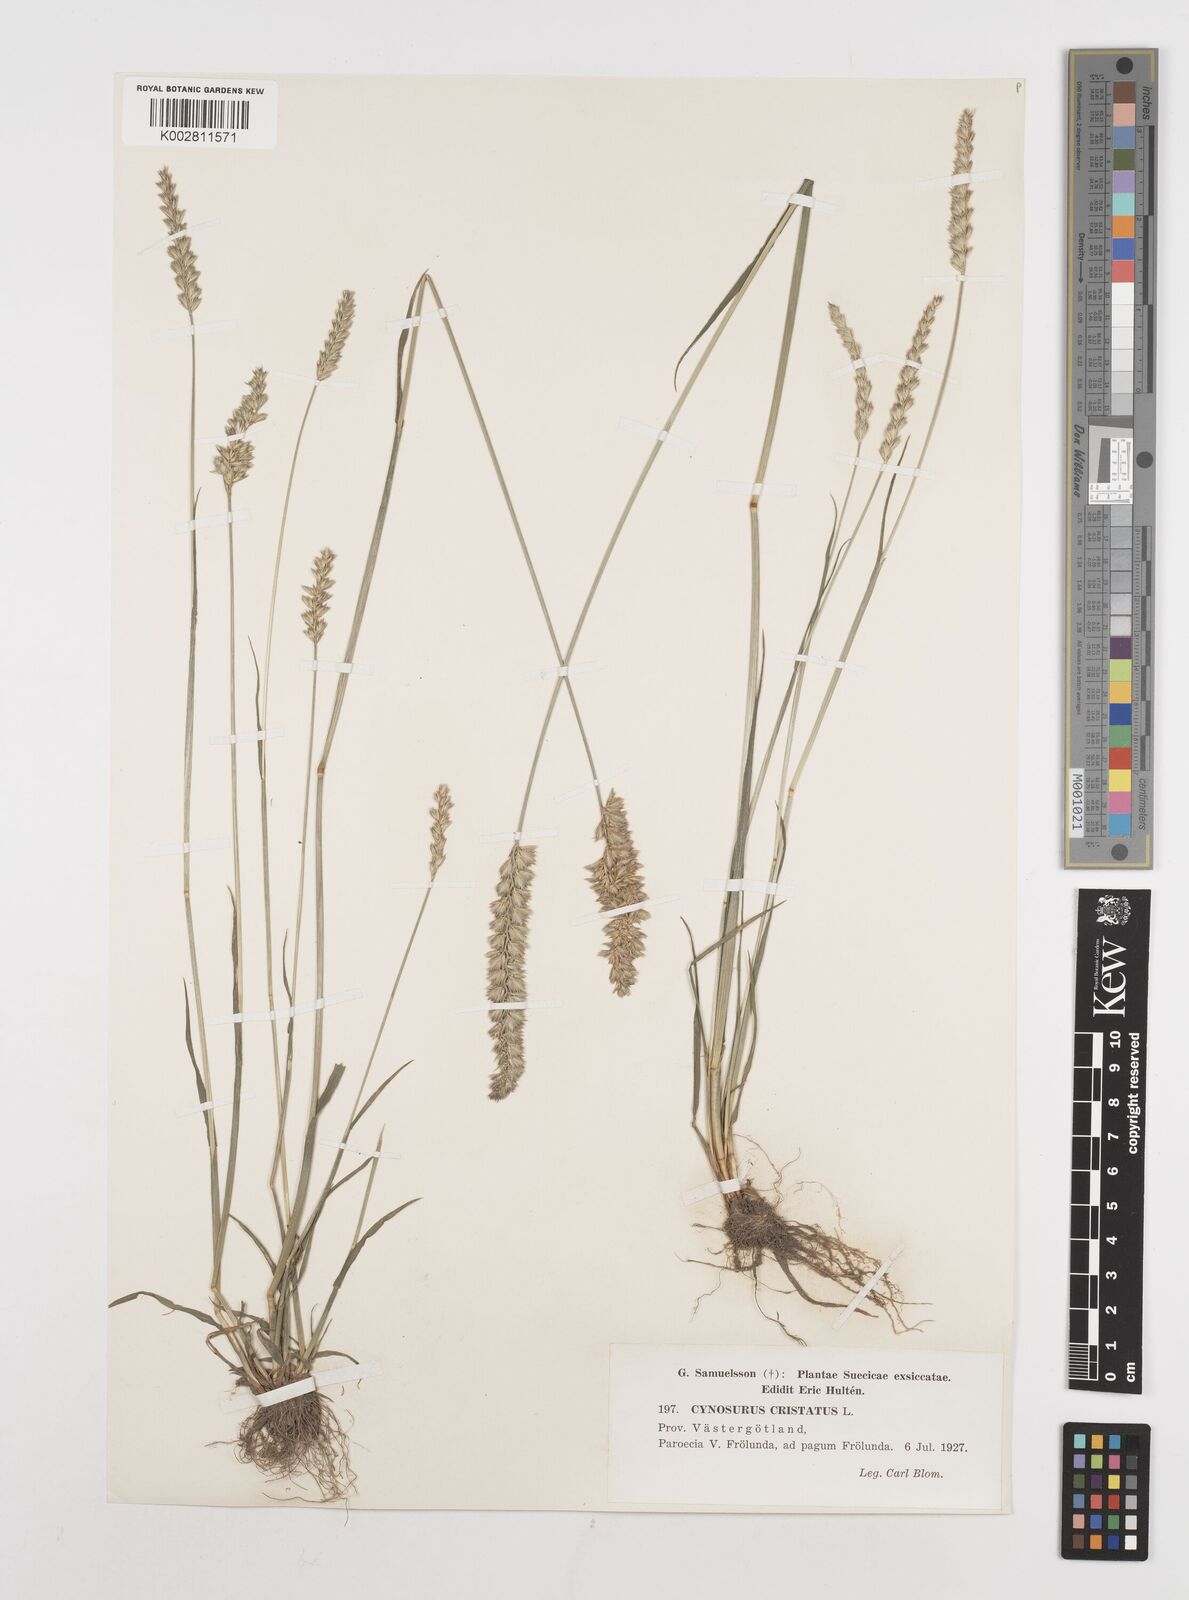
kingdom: Plantae
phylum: Tracheophyta
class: Liliopsida
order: Poales
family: Poaceae
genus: Cynosurus
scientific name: Cynosurus cristatus
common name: Crested dog's-tail
